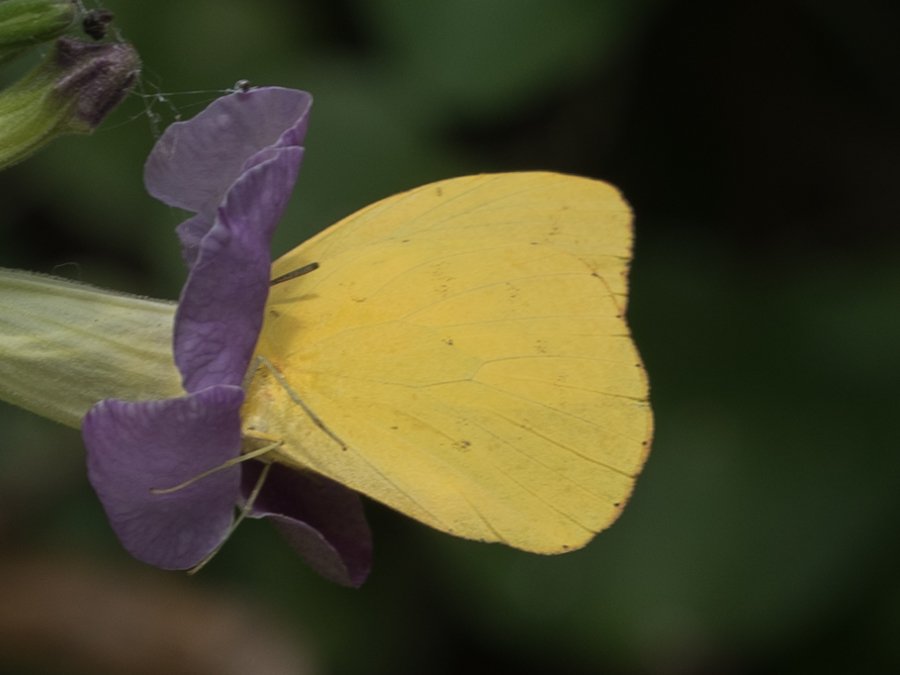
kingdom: Animalia
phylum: Arthropoda
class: Insecta
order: Lepidoptera
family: Pieridae
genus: Phoebis
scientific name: Phoebis agarithe
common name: Large Orange Sulphur
